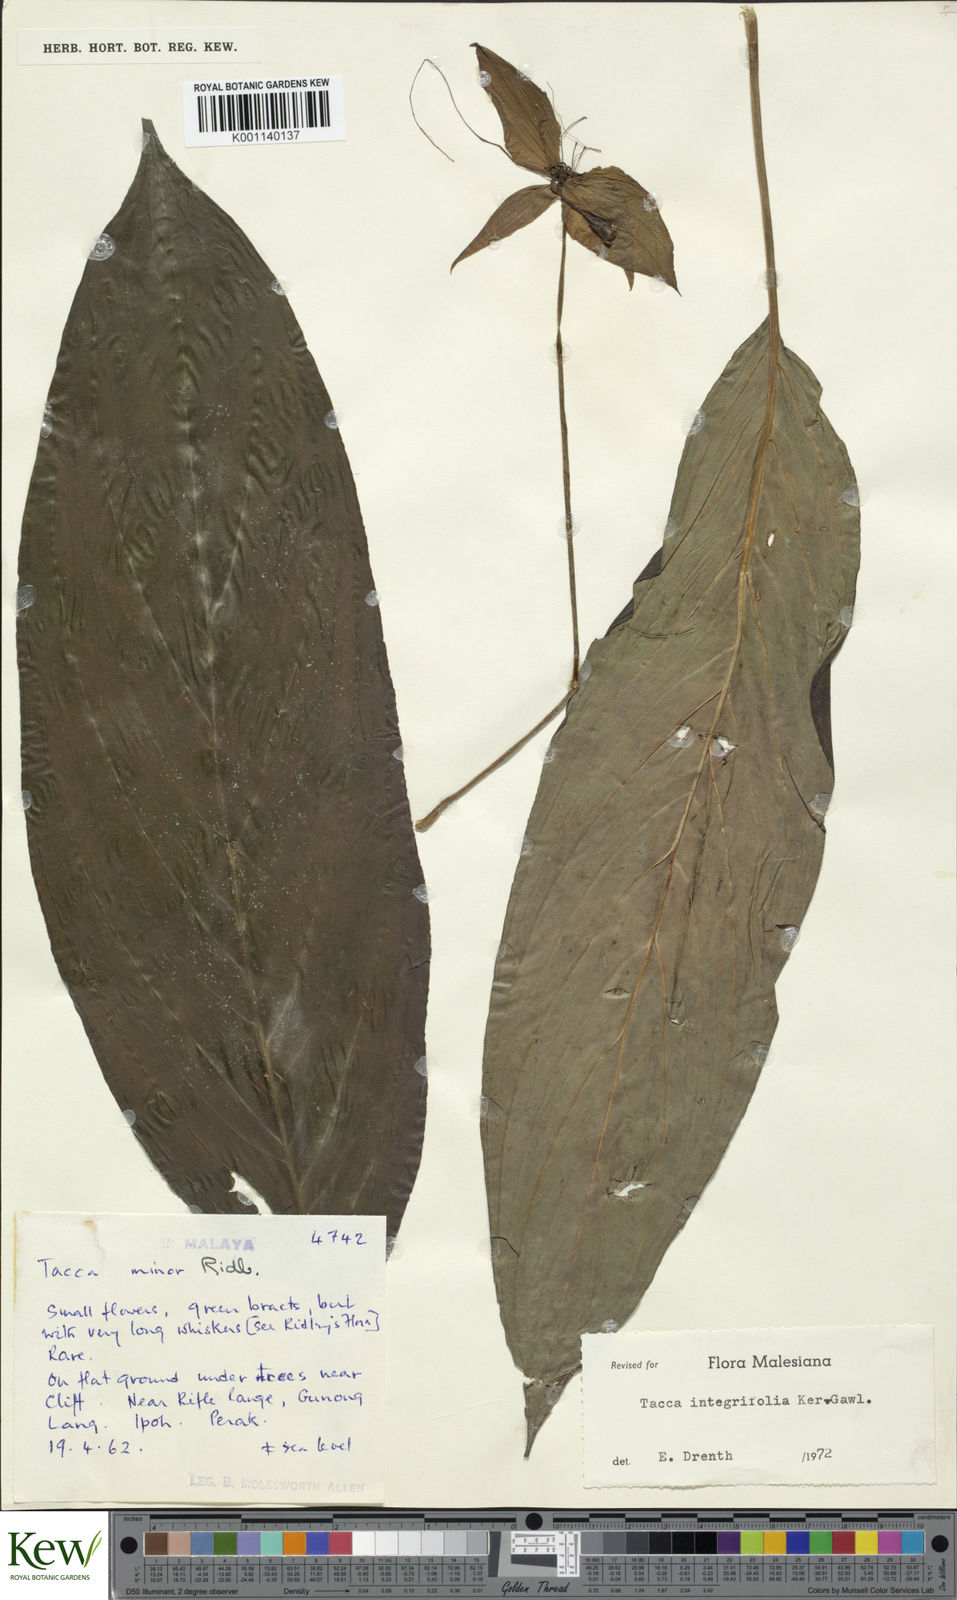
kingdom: Plantae
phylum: Tracheophyta
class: Liliopsida
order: Dioscoreales
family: Dioscoreaceae
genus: Tacca
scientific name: Tacca integrifolia
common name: Batplant
